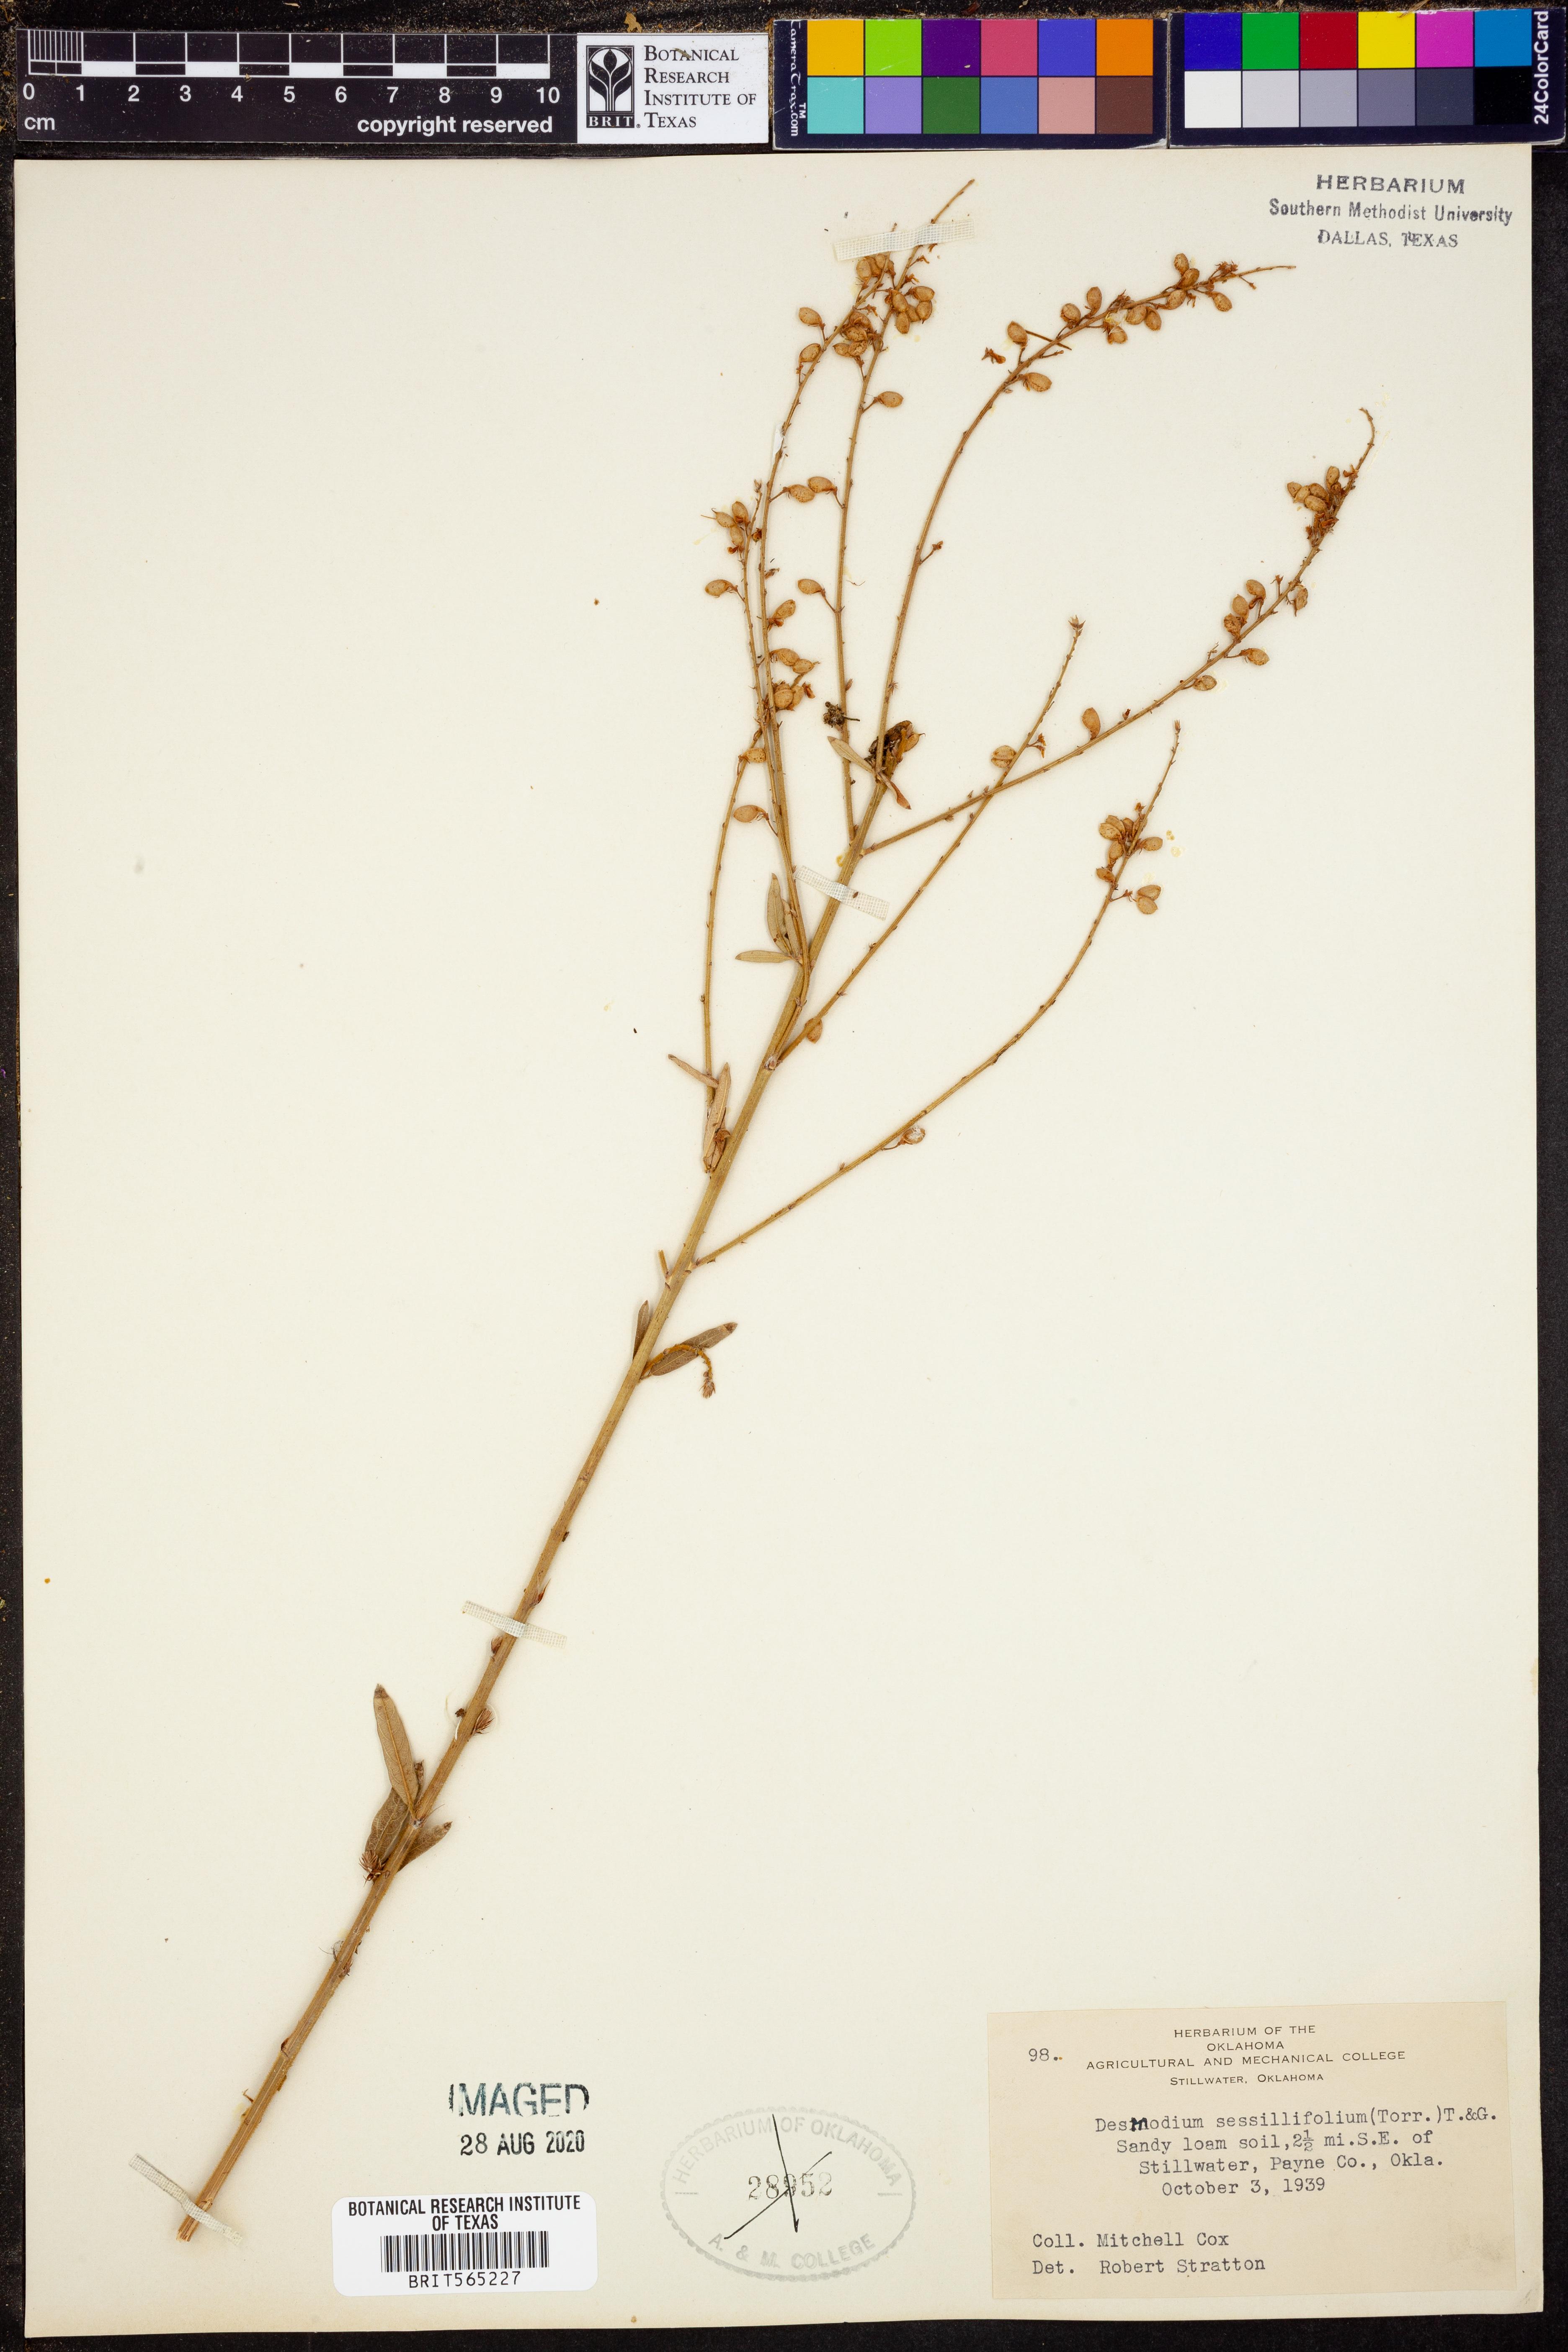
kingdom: Plantae
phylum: Tracheophyta
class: Magnoliopsida
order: Fabales
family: Fabaceae
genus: Desmodium
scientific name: Desmodium sessilifolium
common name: Sessile tick-clover
